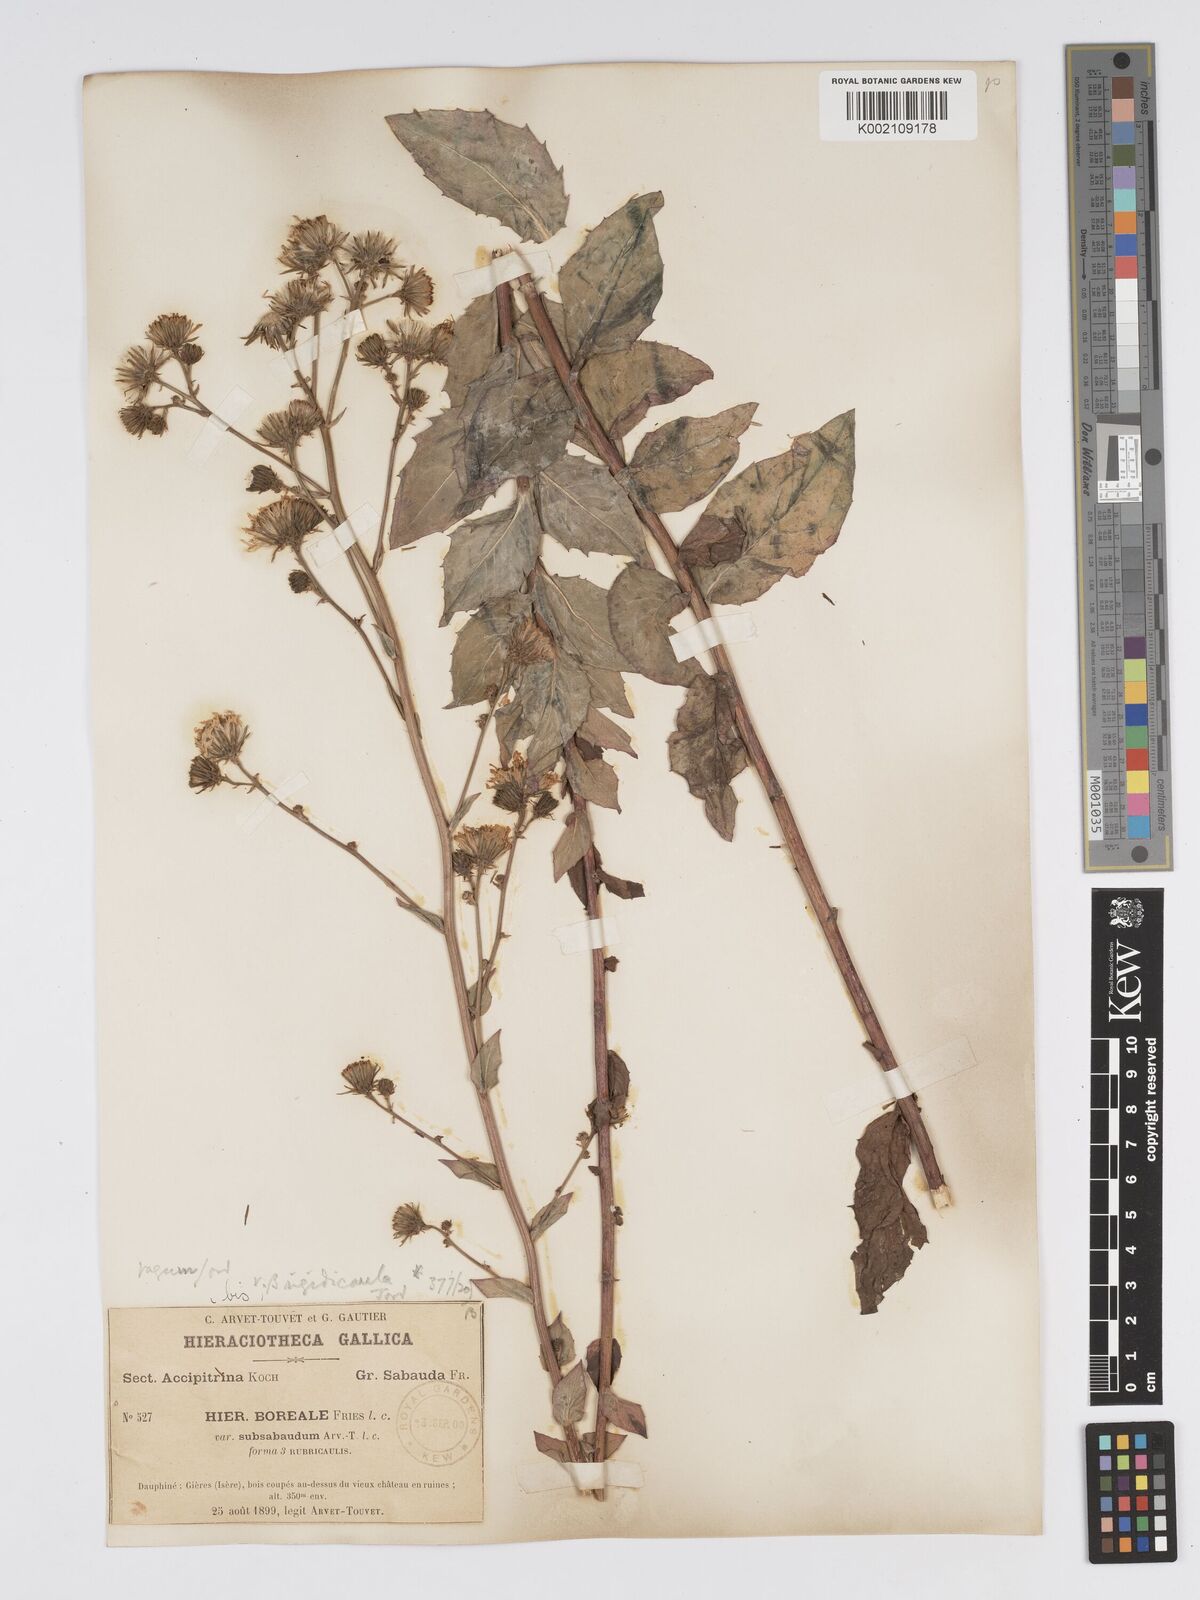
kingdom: Plantae
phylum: Tracheophyta
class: Magnoliopsida
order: Asterales
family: Asteraceae
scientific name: Asteraceae
